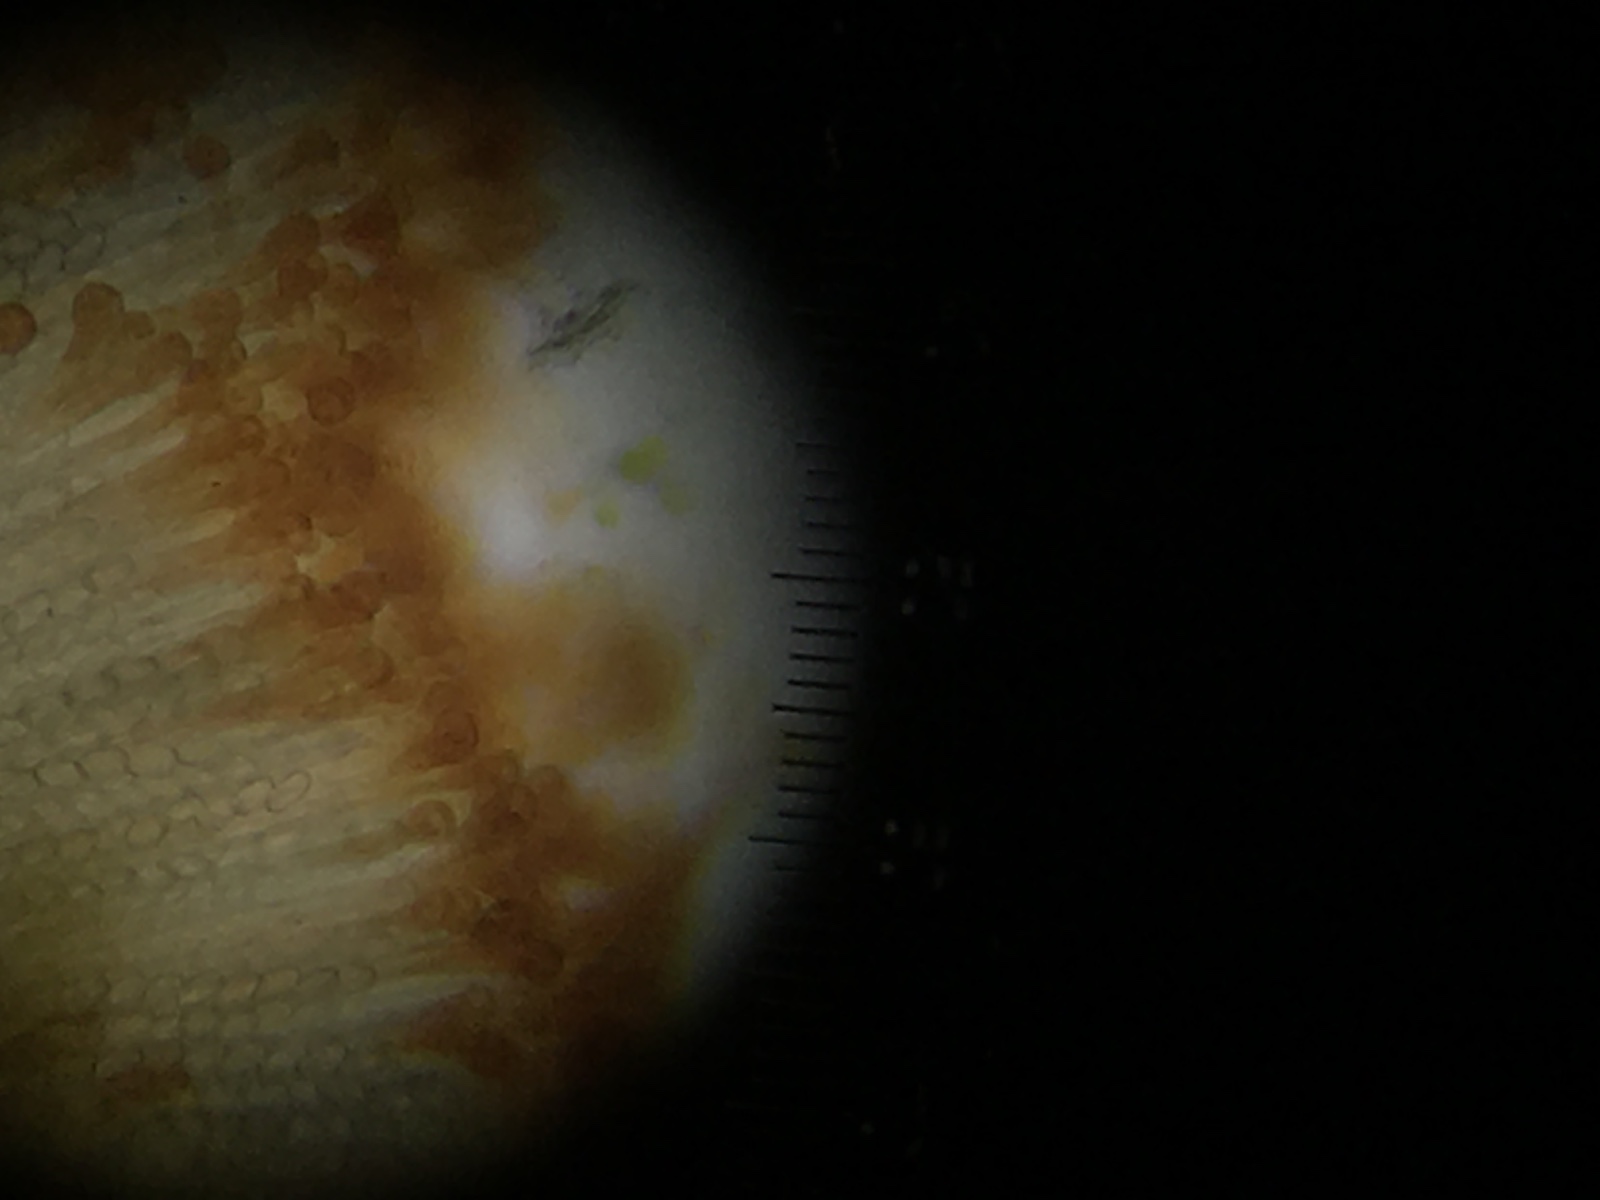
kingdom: Fungi
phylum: Ascomycota
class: Pezizomycetes
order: Pezizales
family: Pyronemataceae
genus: Cheilymenia
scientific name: Cheilymenia granulata
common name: møgbæger
